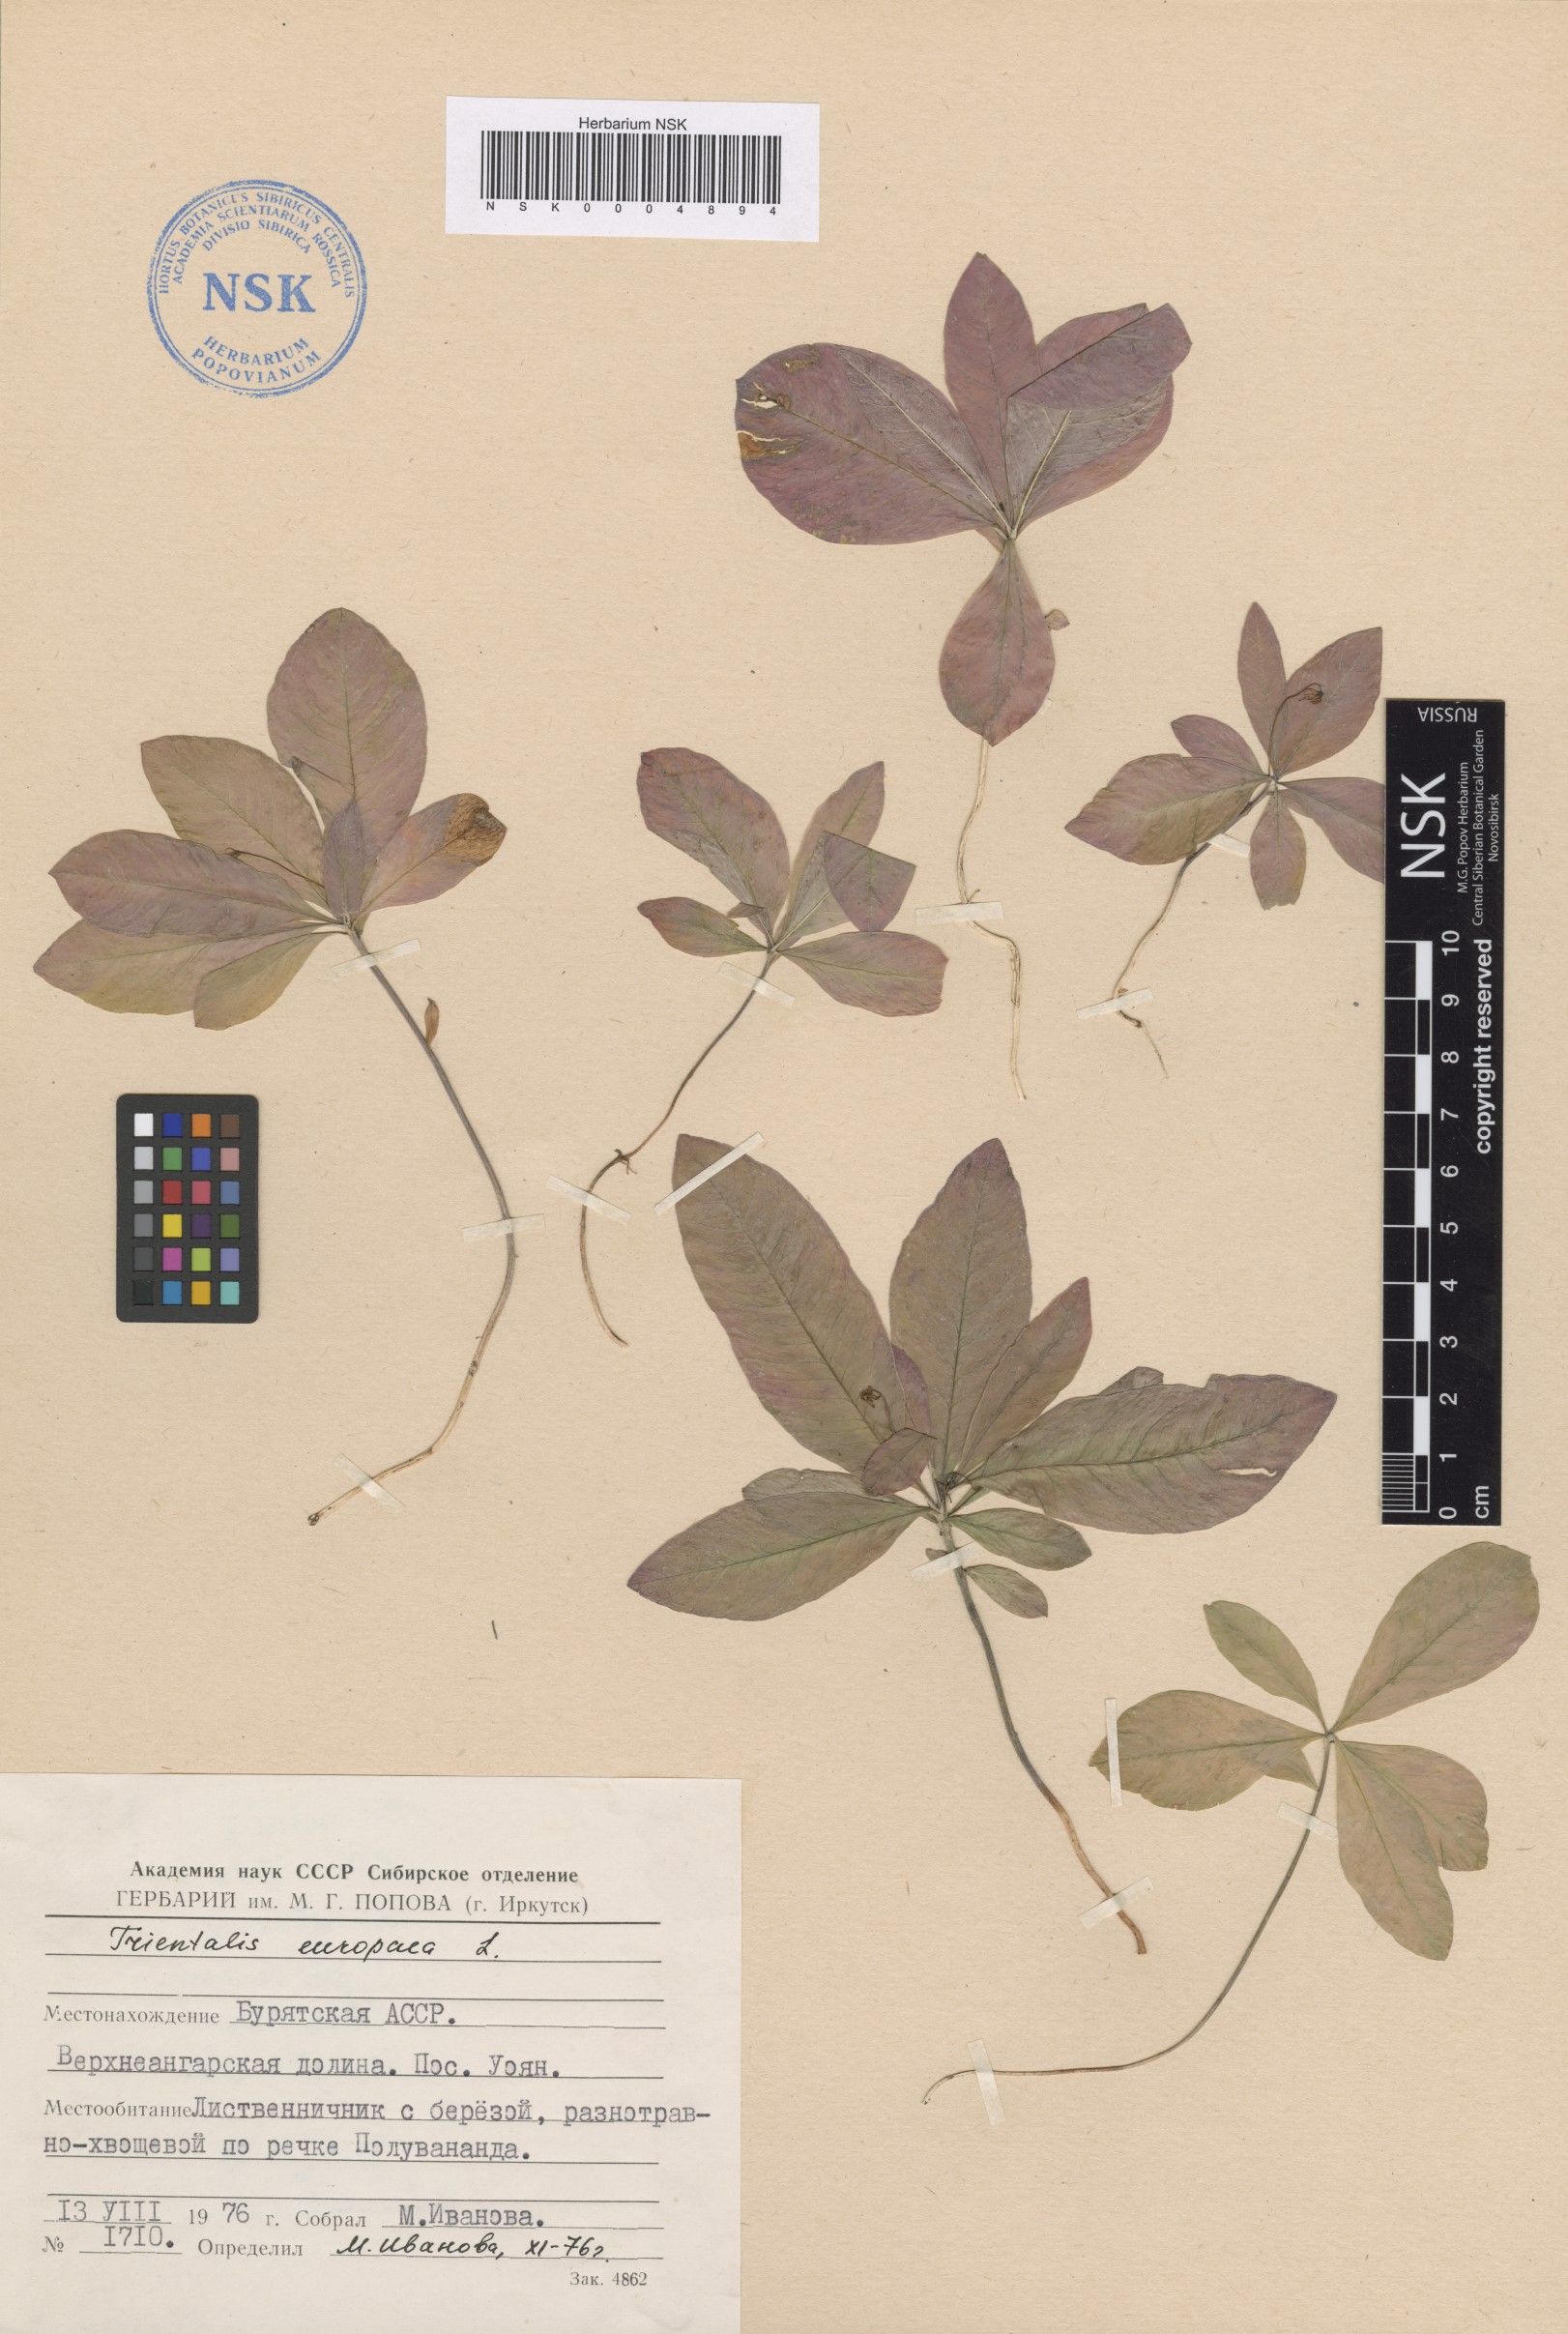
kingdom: Plantae
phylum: Tracheophyta
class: Magnoliopsida
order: Ericales
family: Primulaceae
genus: Lysimachia
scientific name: Lysimachia europaea
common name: Arctic starflower
